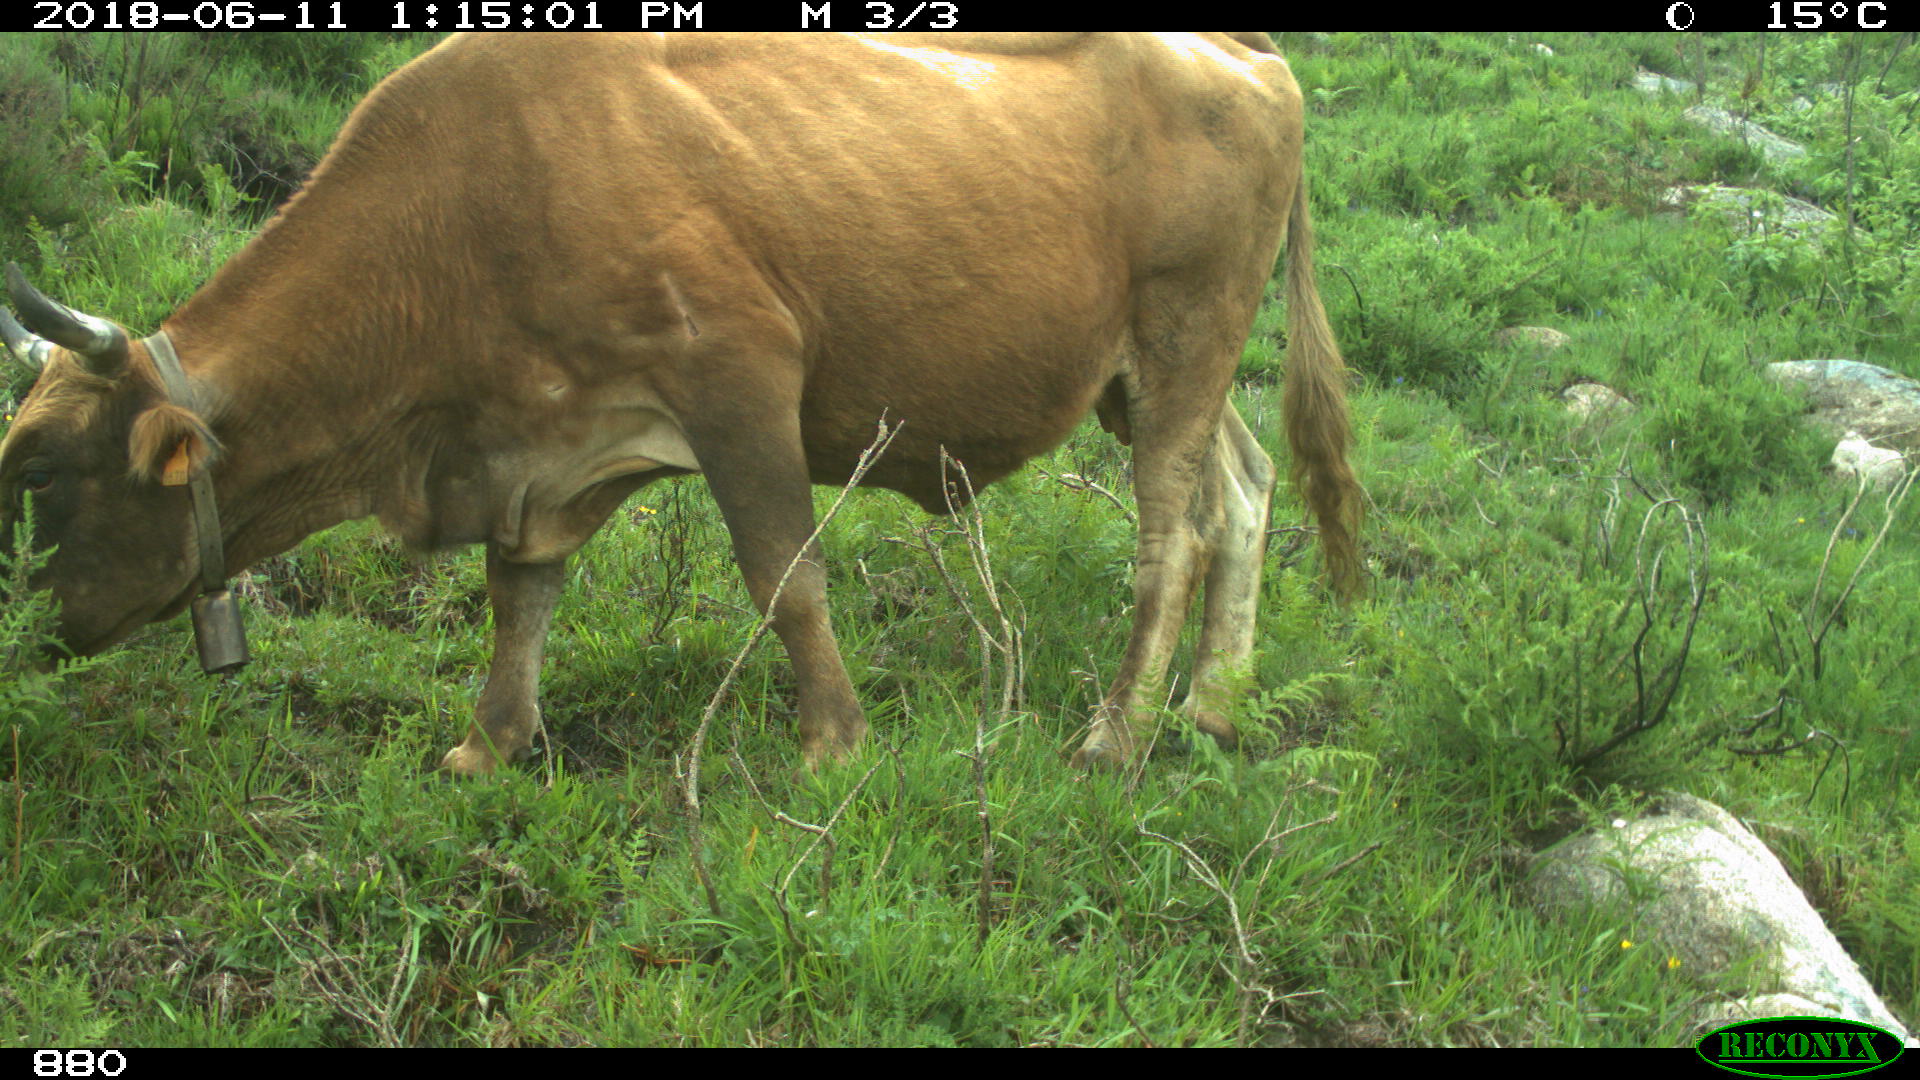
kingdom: Animalia
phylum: Chordata
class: Mammalia
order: Artiodactyla
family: Bovidae
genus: Bos
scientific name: Bos taurus
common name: Domesticated cattle
